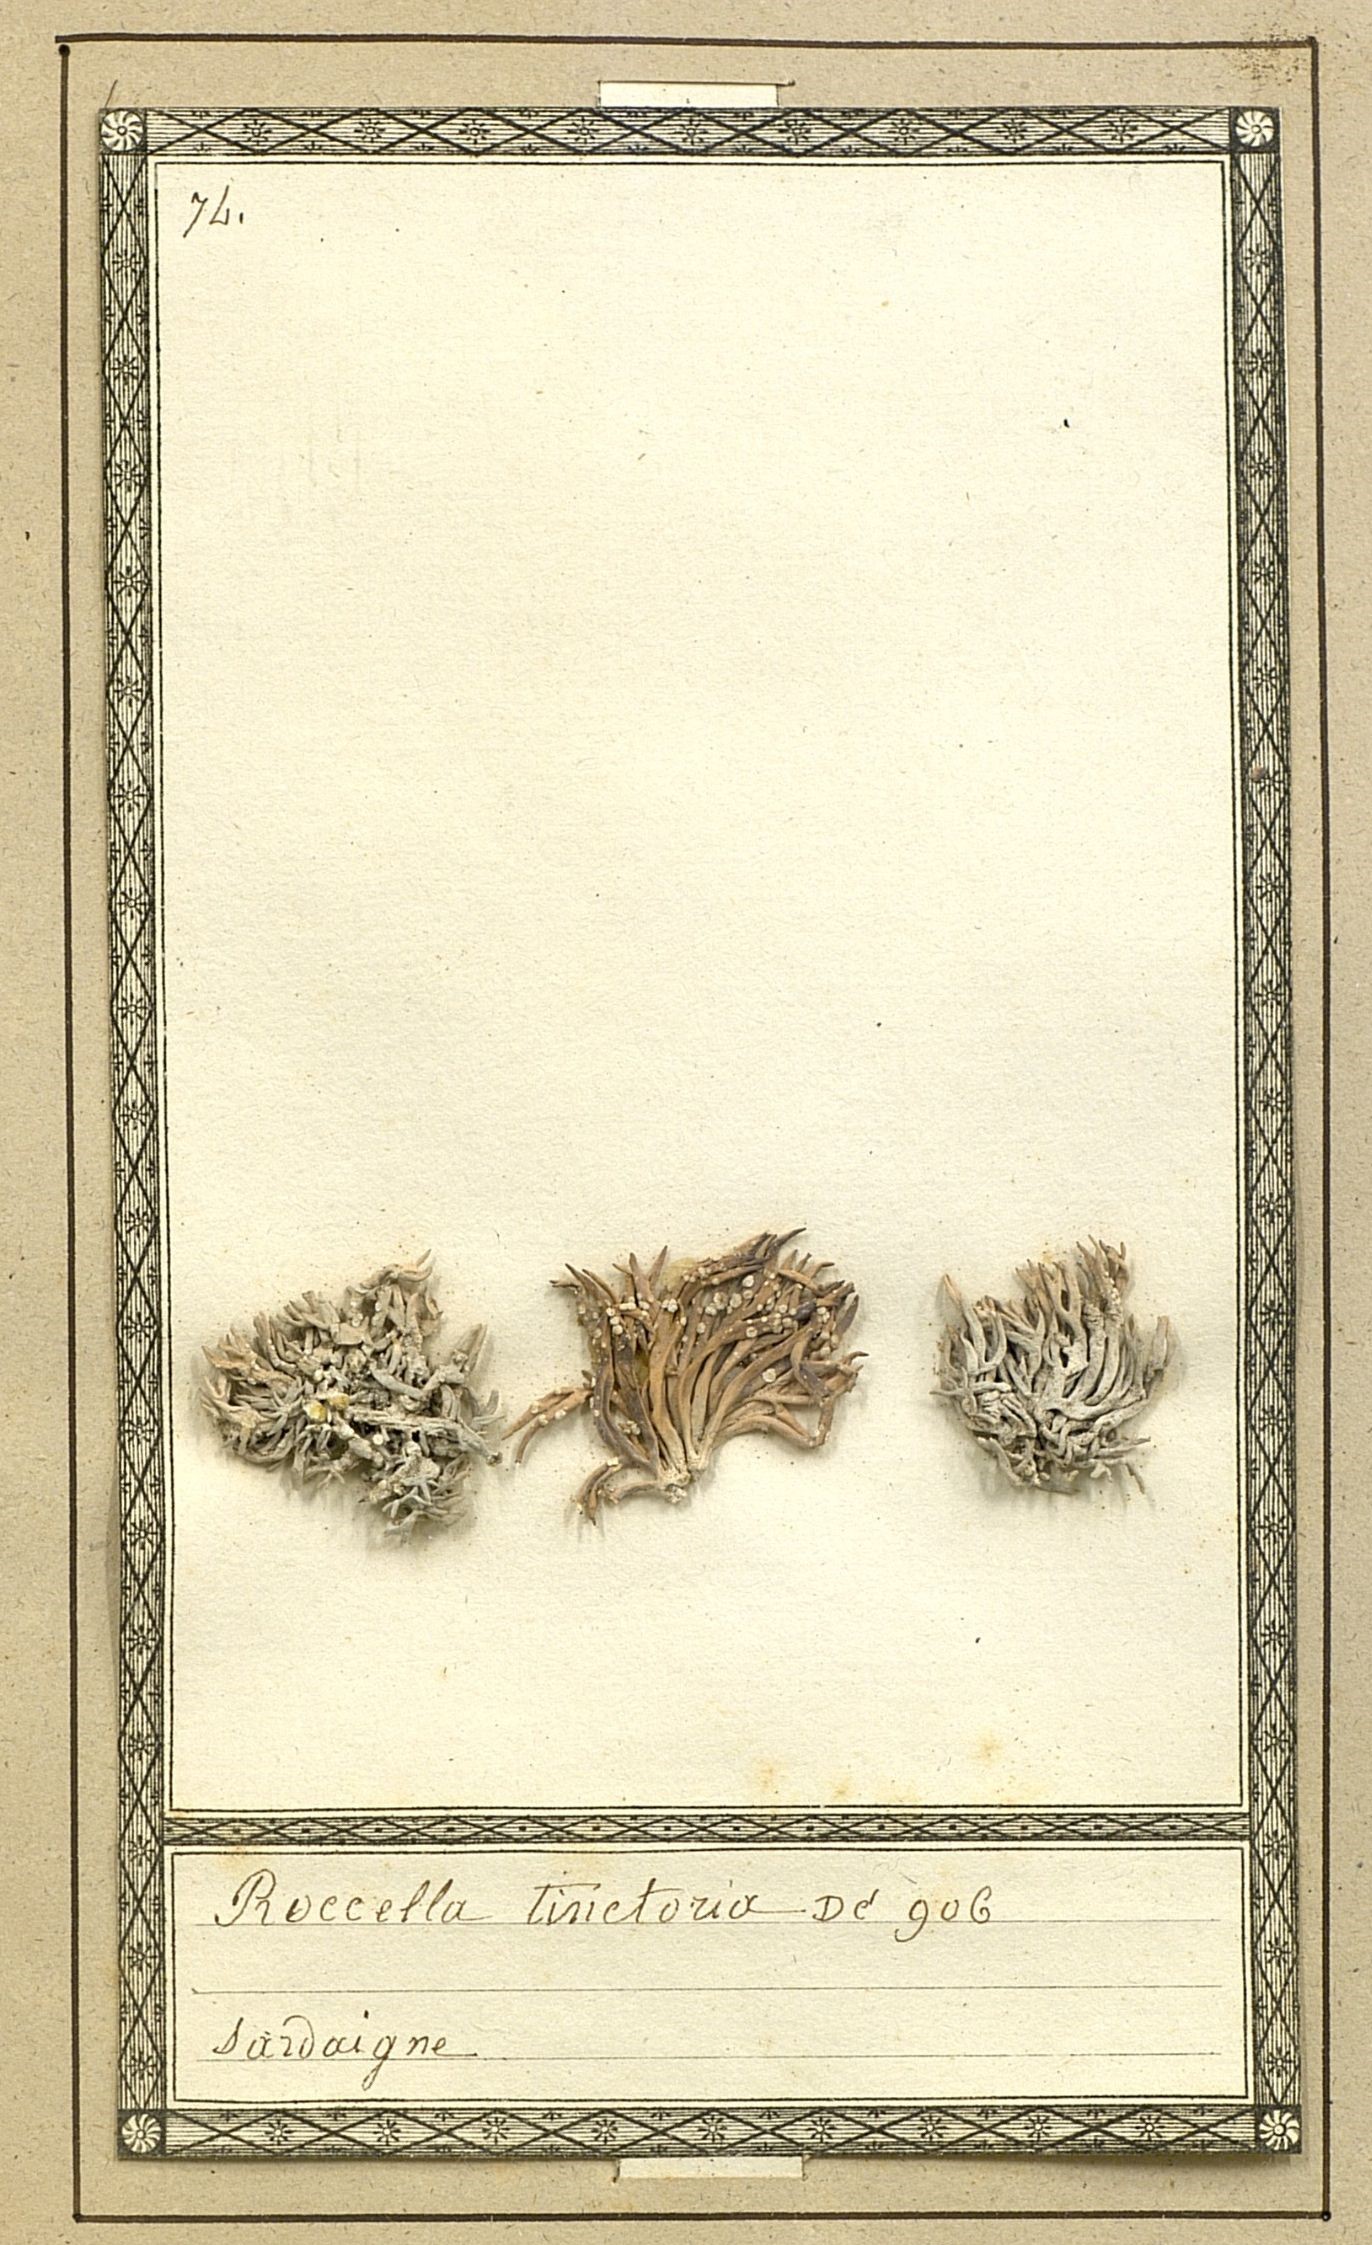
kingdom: Fungi
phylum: Ascomycota
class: Arthoniomycetes
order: Arthoniales
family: Roccellaceae
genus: Roccella
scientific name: Roccella phycopsis
